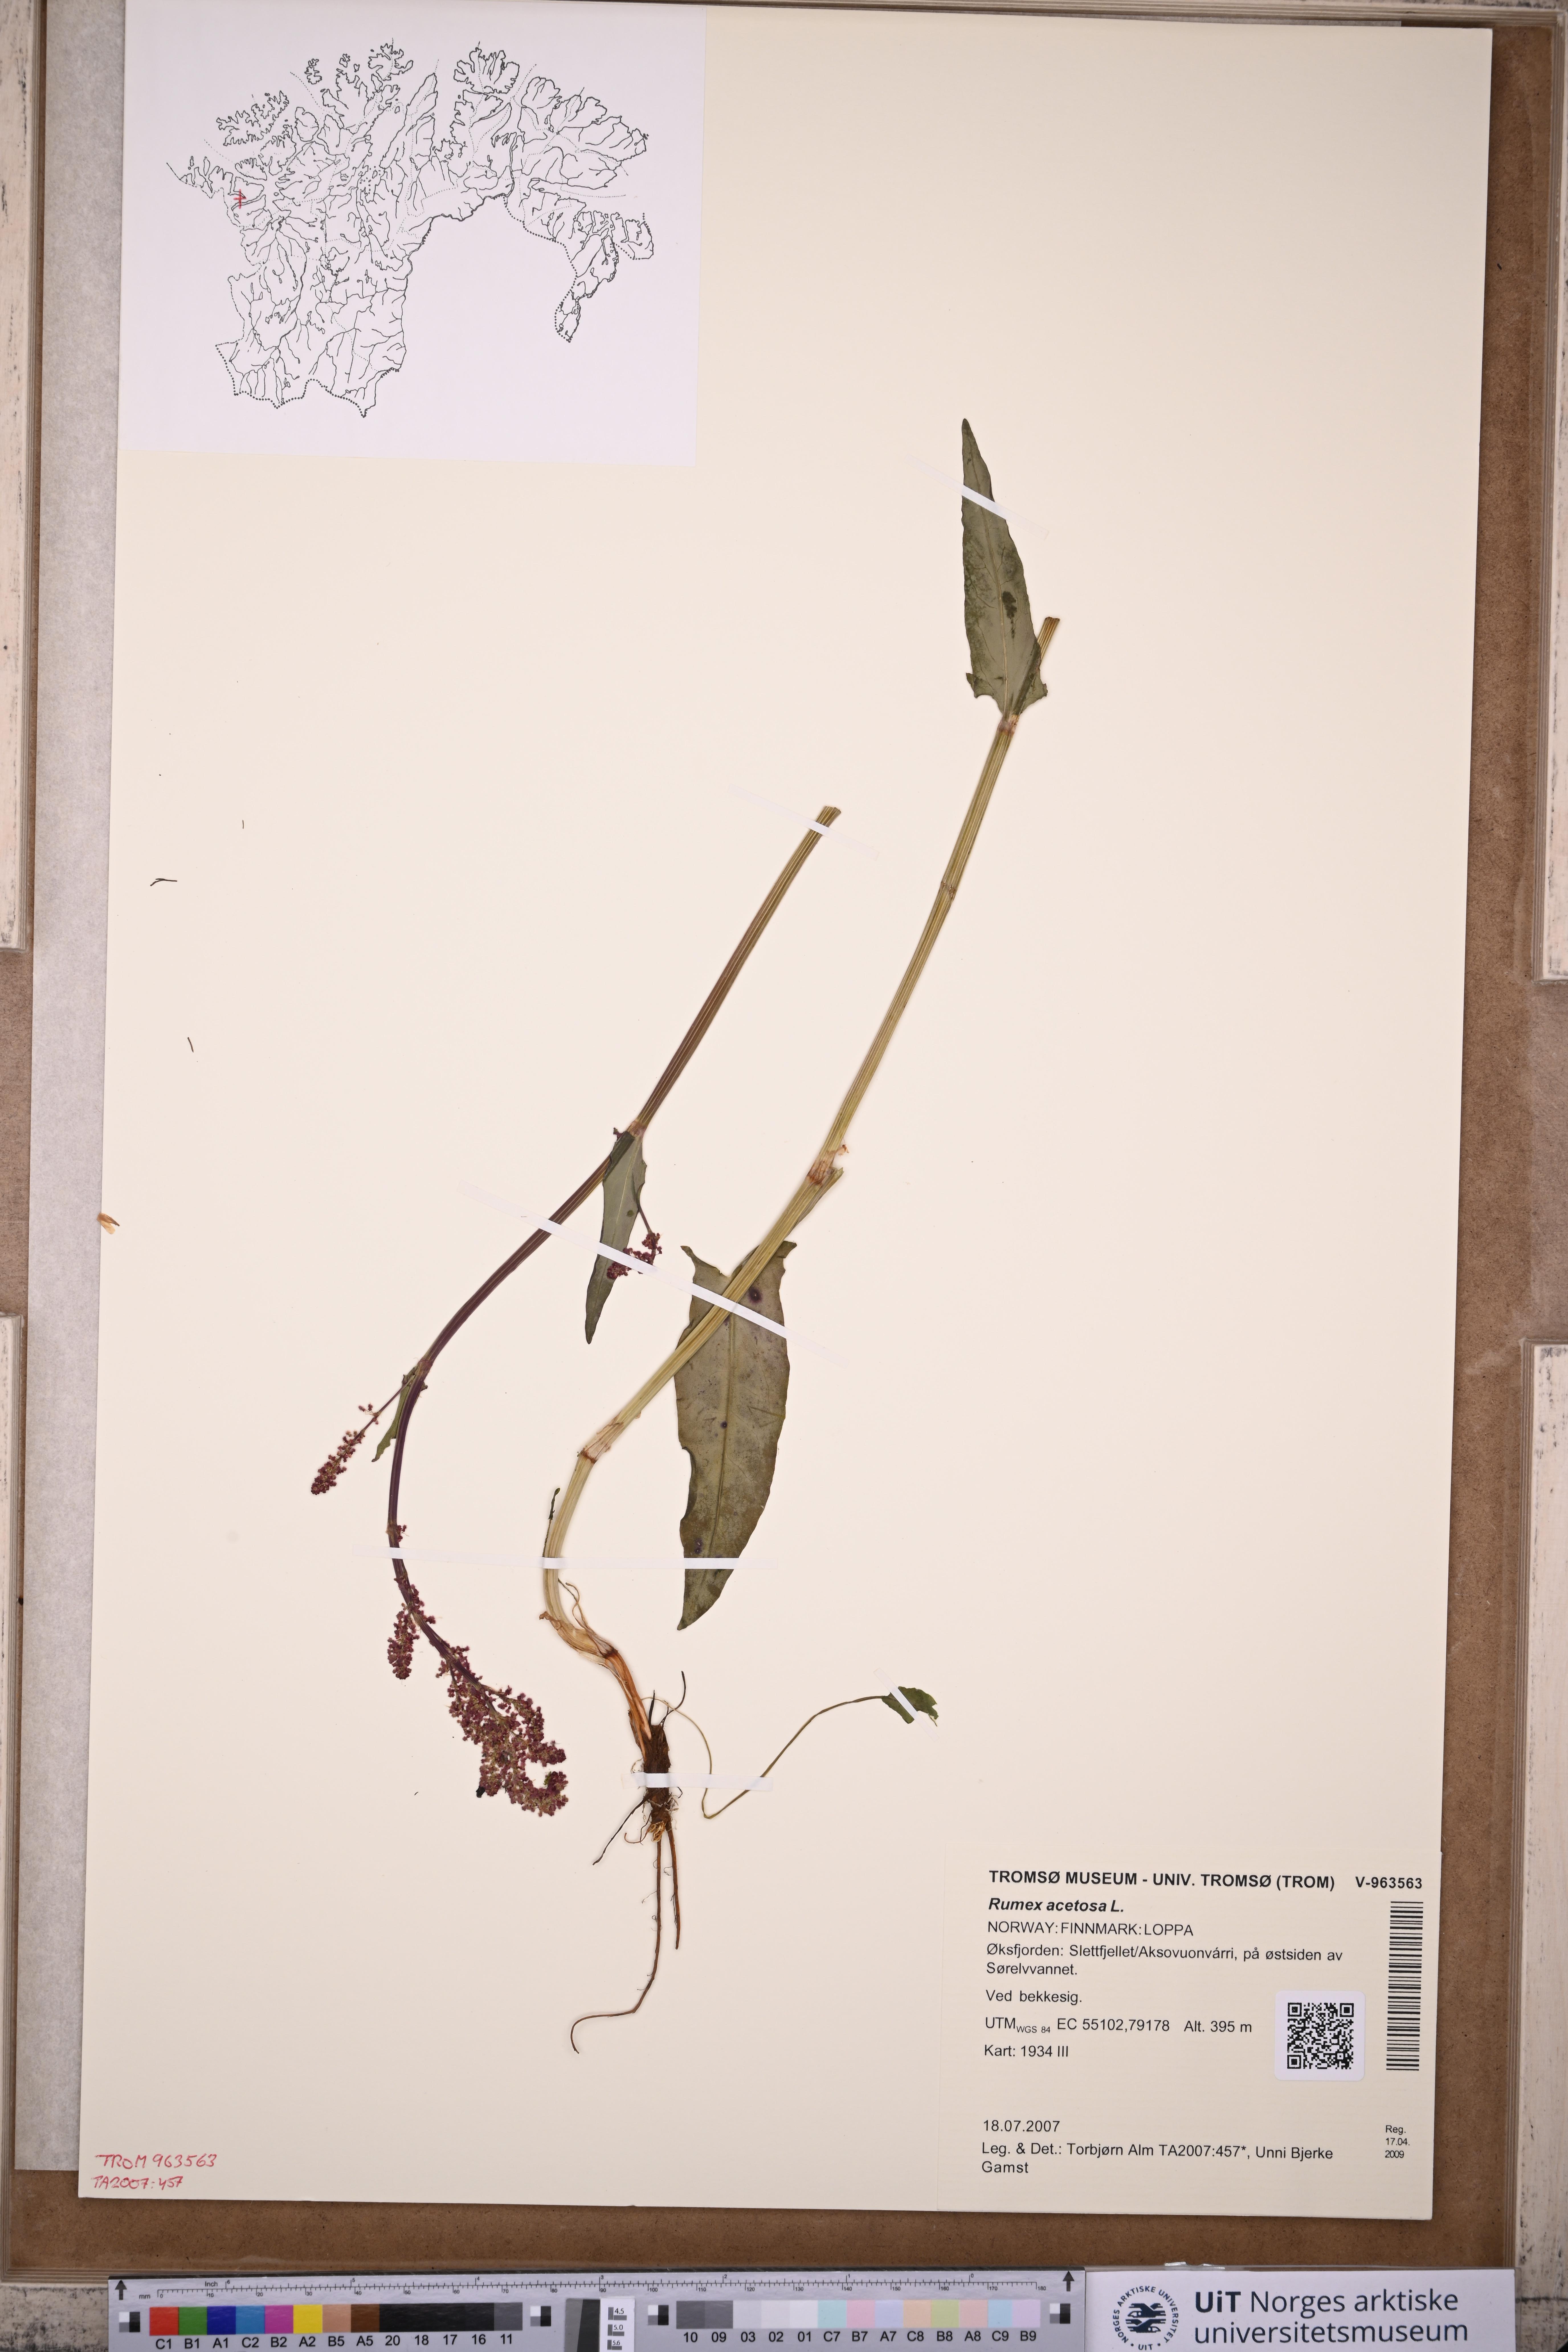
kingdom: Plantae
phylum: Tracheophyta
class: Magnoliopsida
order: Caryophyllales
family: Polygonaceae
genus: Rumex
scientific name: Rumex acetosa
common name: Garden sorrel
